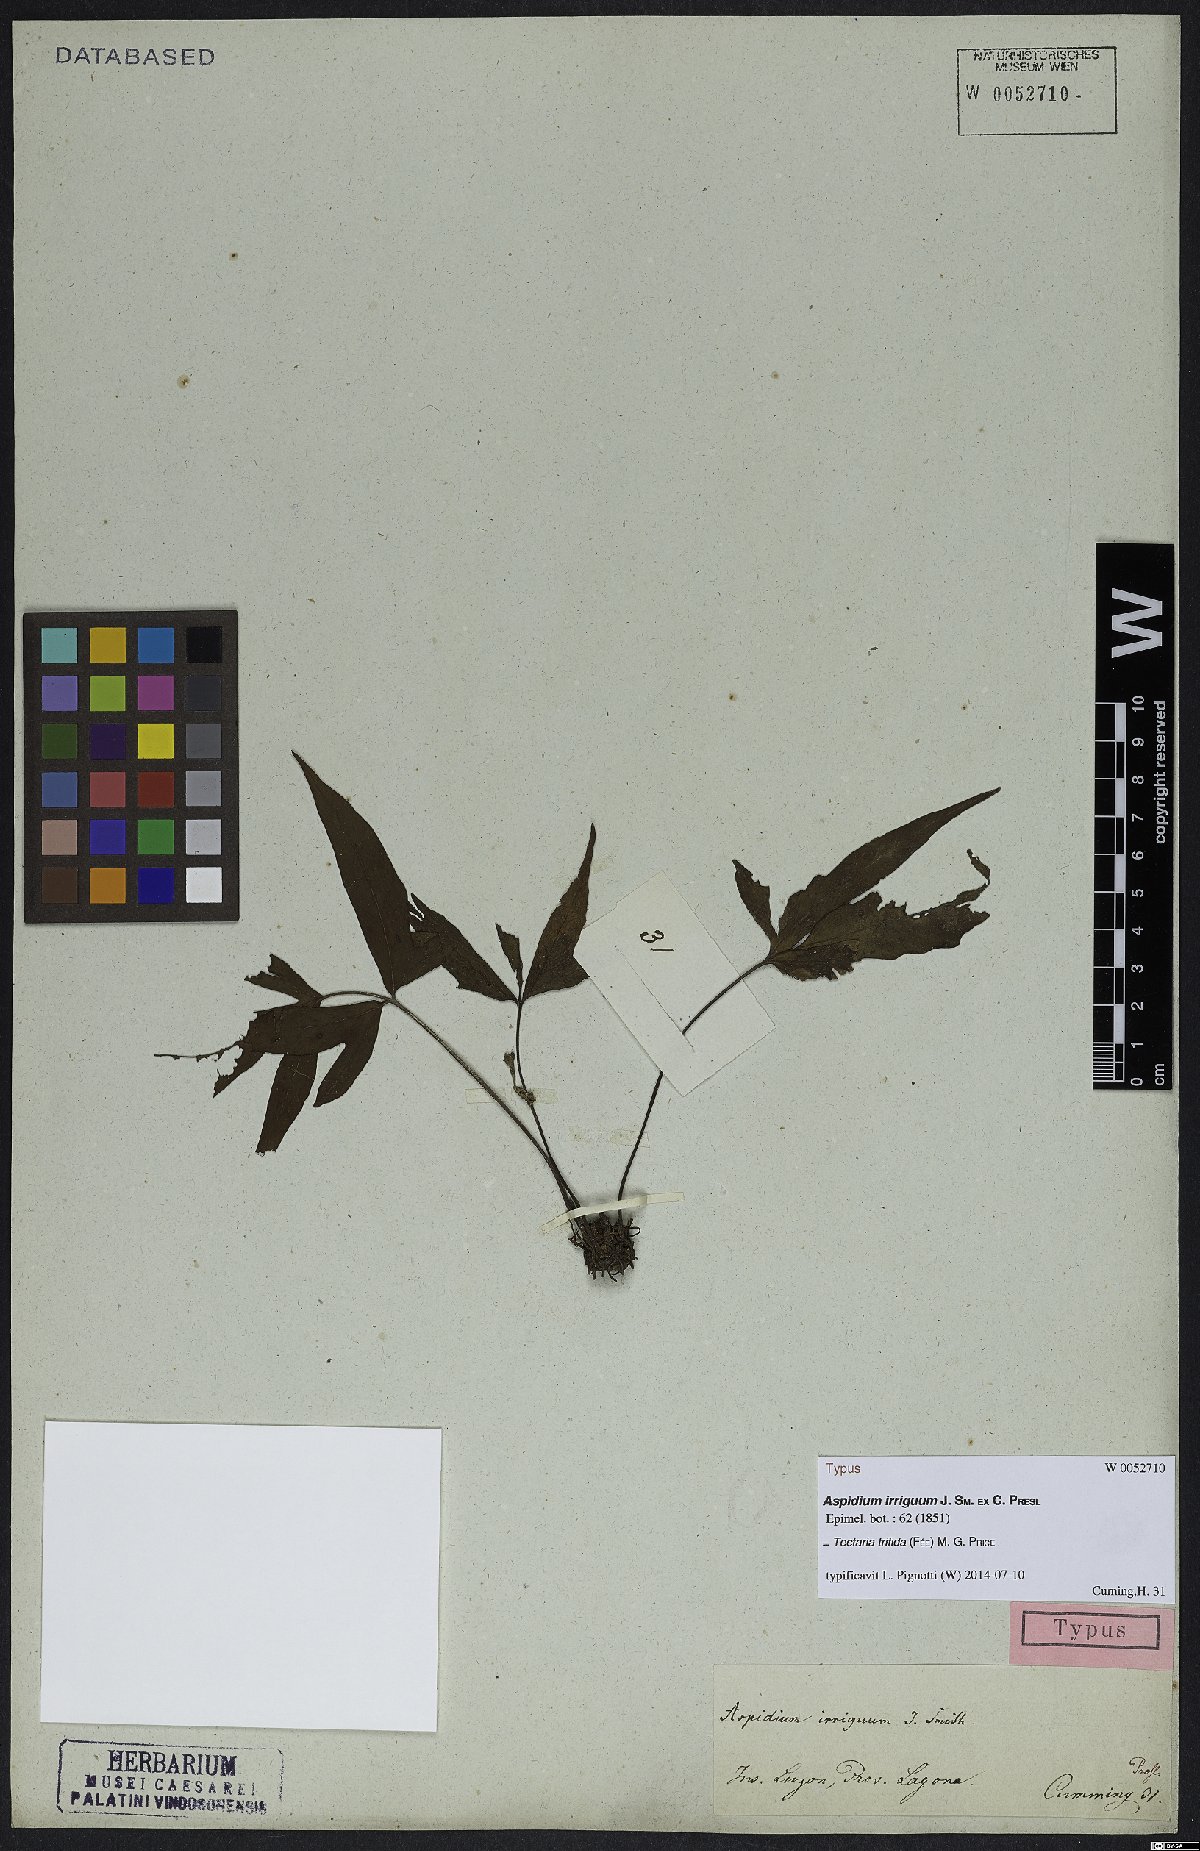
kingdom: Plantae
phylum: Tracheophyta
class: Polypodiopsida
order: Polypodiales
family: Tectariaceae
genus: Tectaria
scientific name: Tectaria trifida
